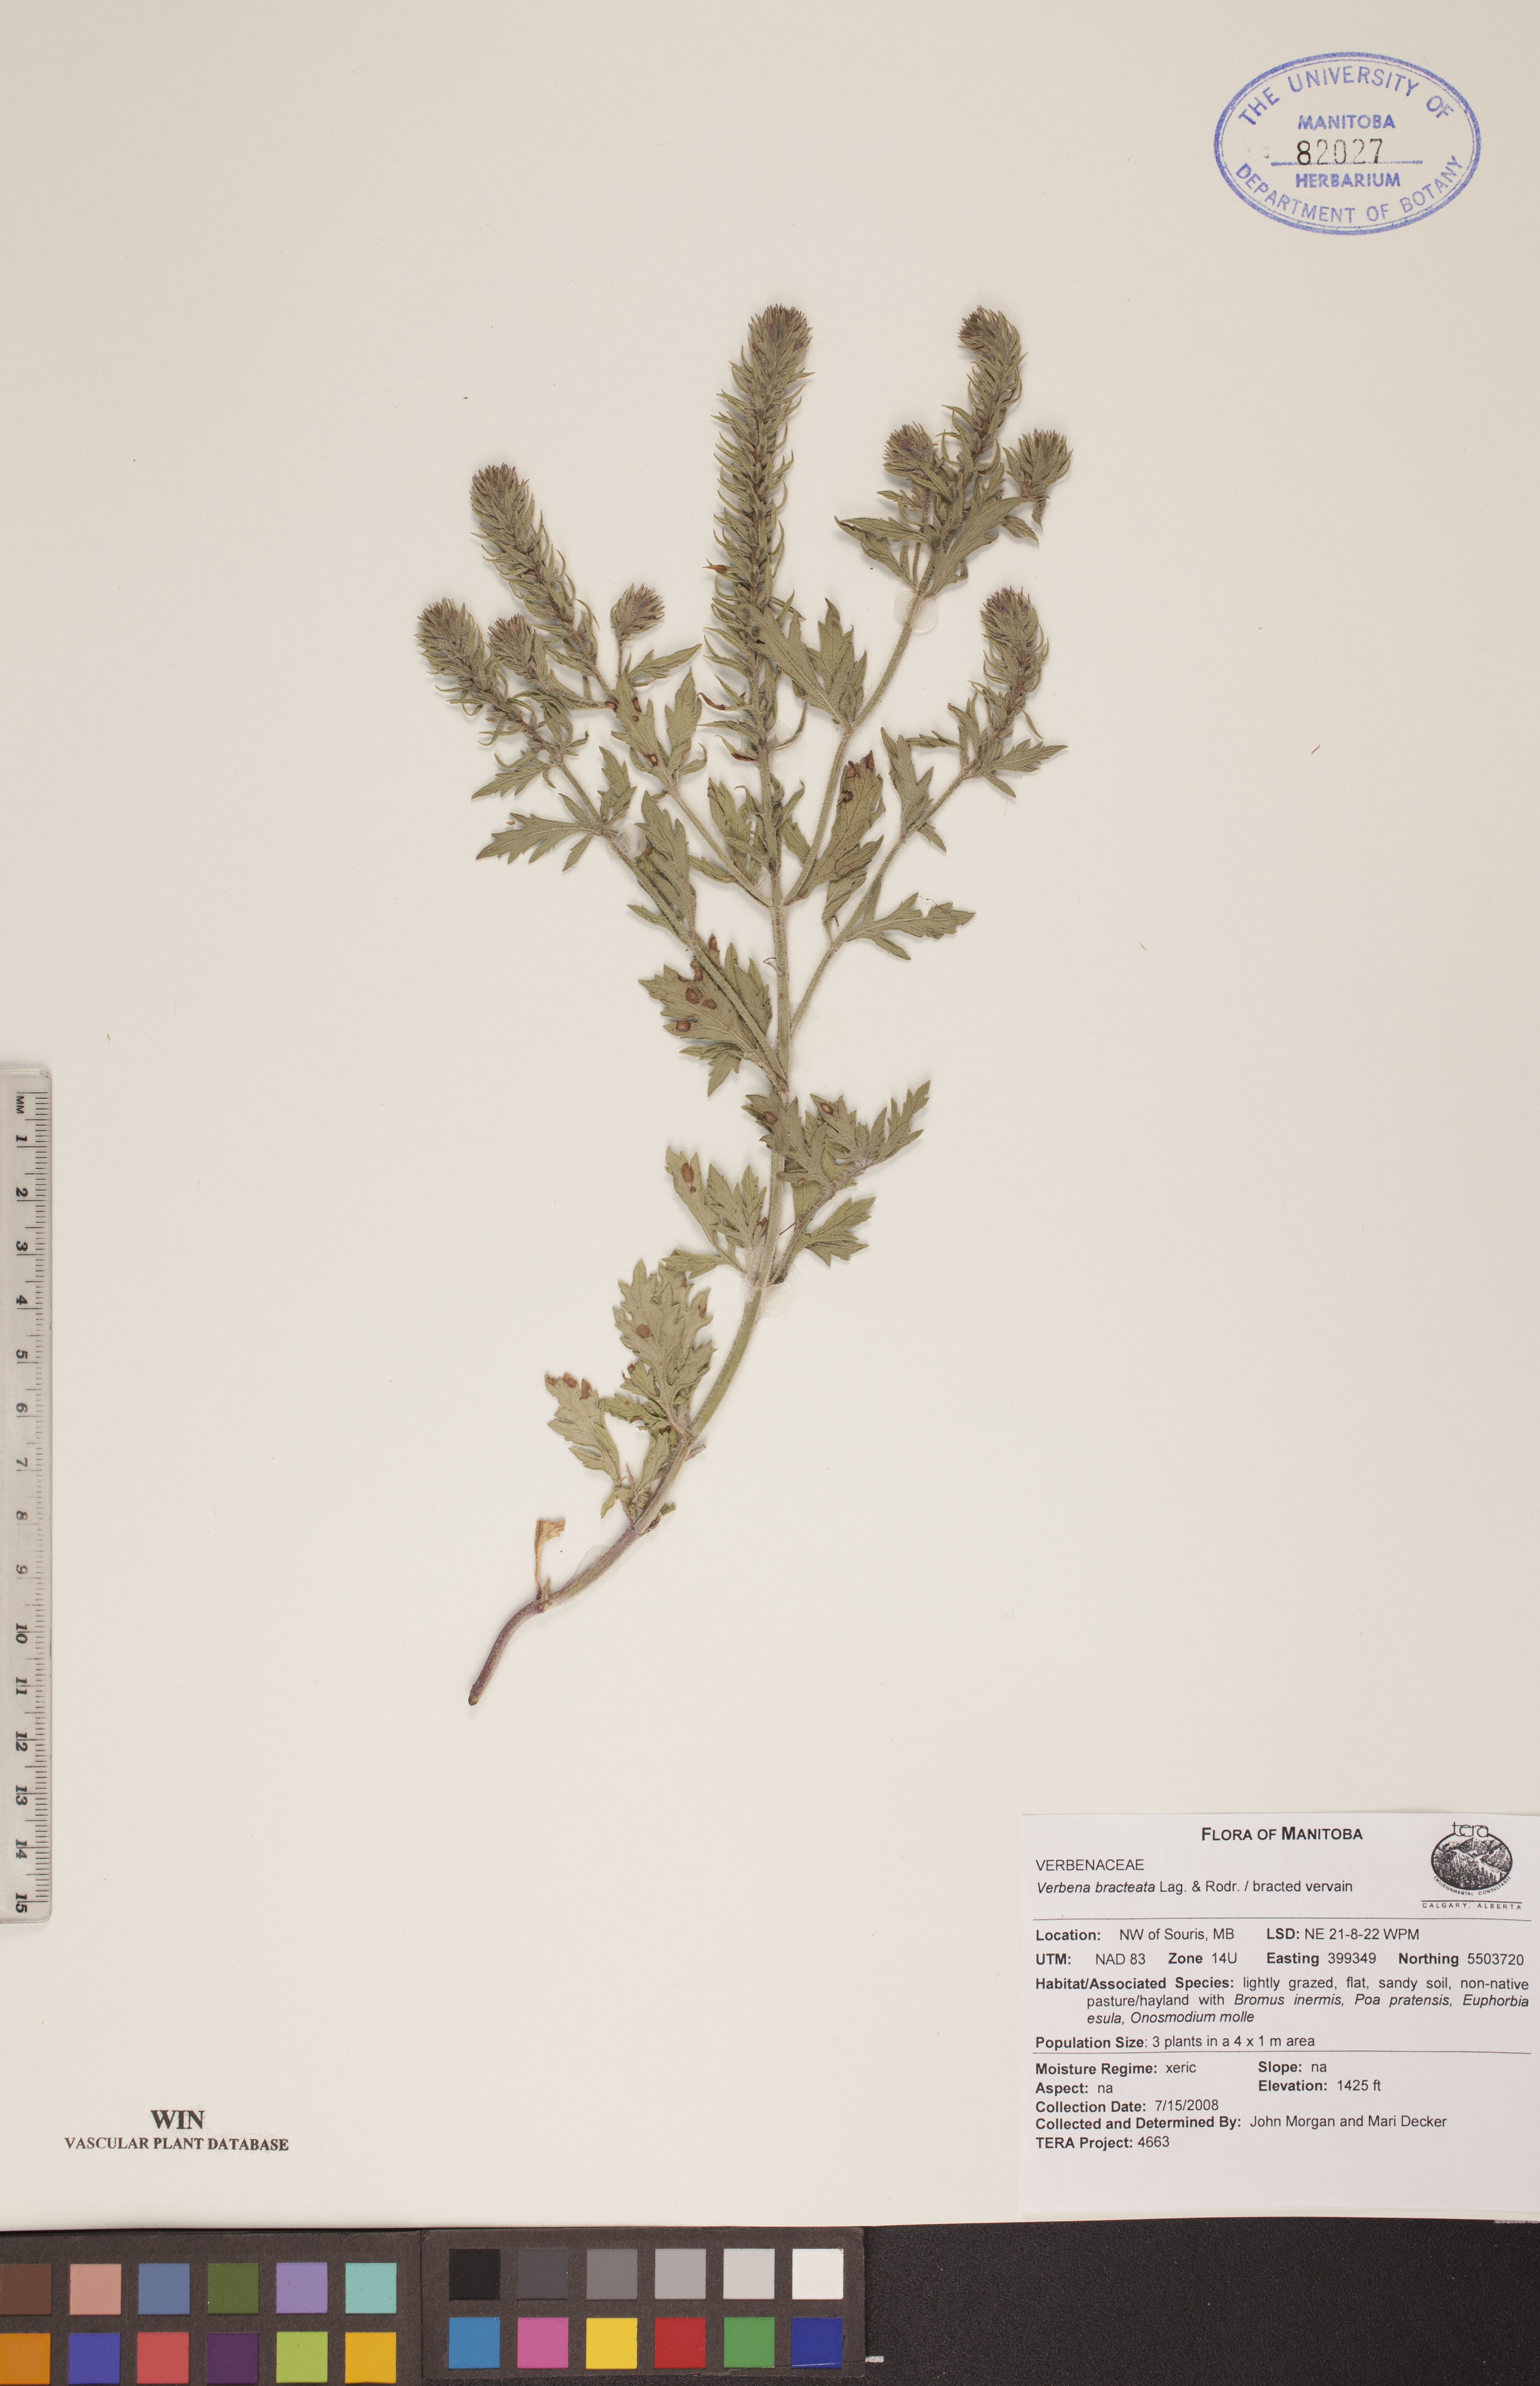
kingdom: Plantae
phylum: Tracheophyta
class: Magnoliopsida
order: Lamiales
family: Verbenaceae
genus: Verbena
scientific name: Verbena bracteata
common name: Bracted vervain
